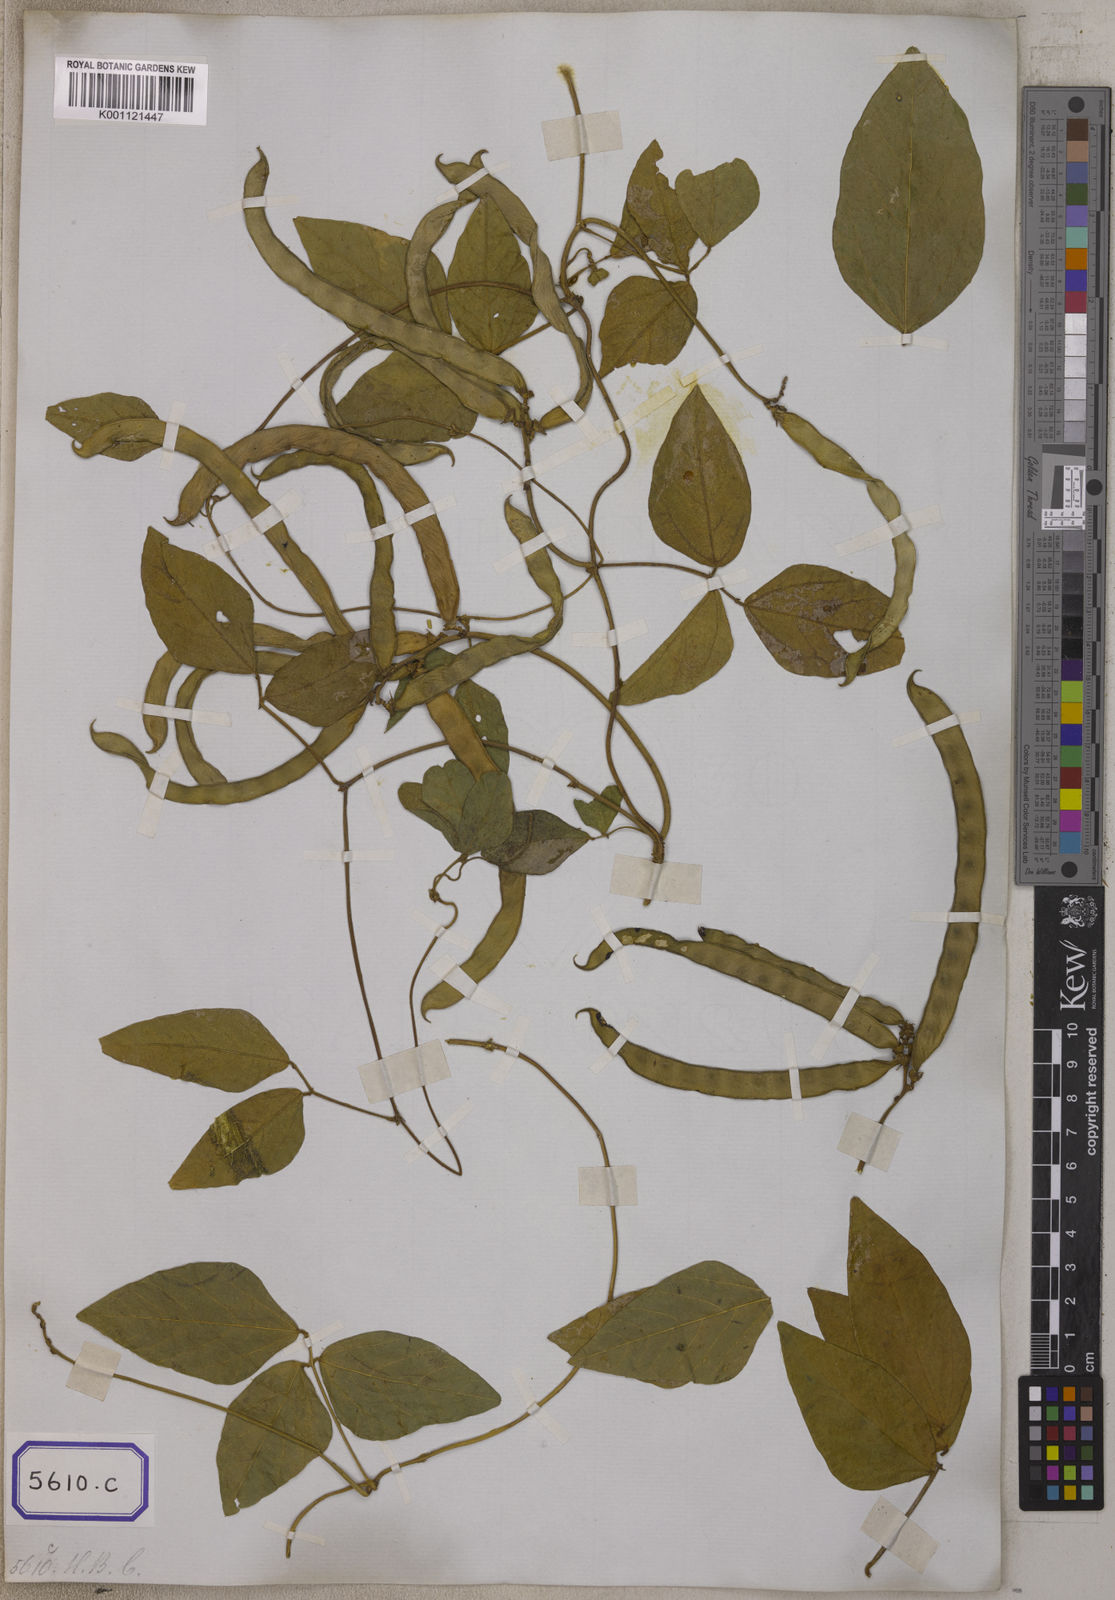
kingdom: Plantae
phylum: Tracheophyta
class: Magnoliopsida
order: Fabales
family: Fabaceae
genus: Leptospron
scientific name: Leptospron adenanthum
